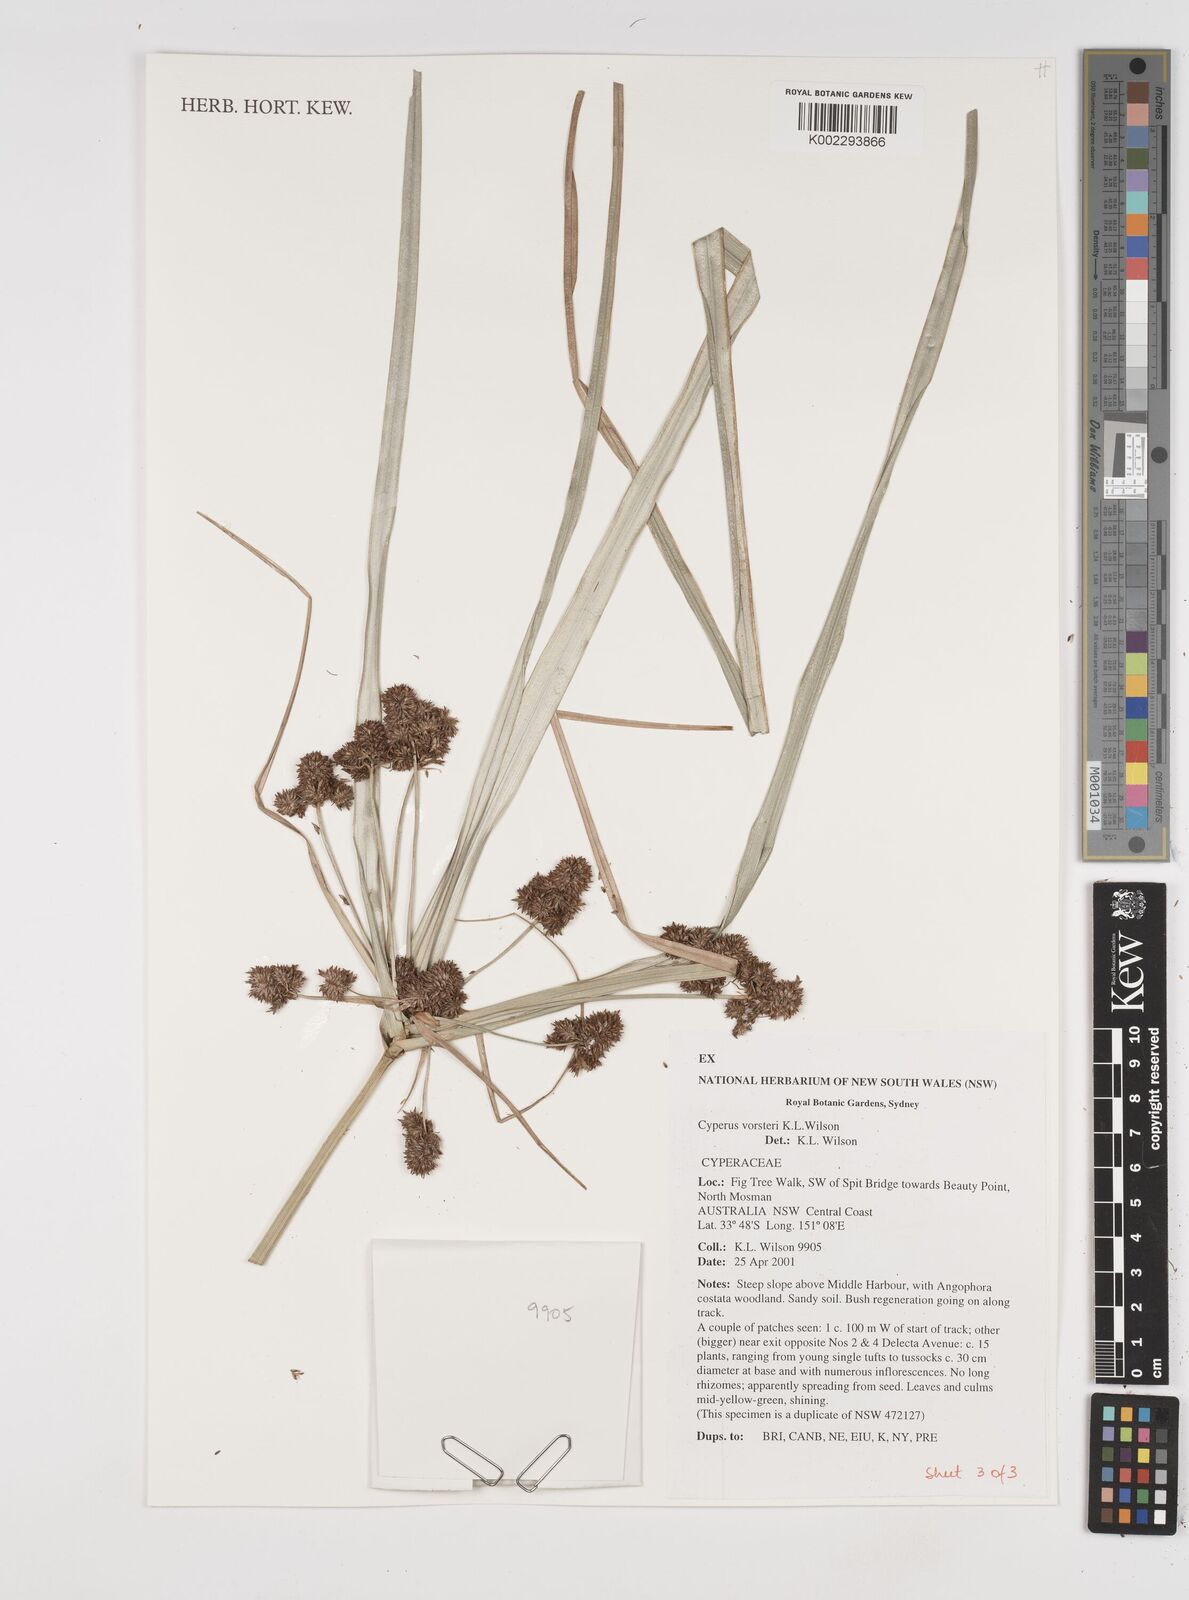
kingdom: Plantae
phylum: Tracheophyta
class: Liliopsida
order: Poales
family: Cyperaceae
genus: Cyperus
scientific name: Cyperus vorsteri
